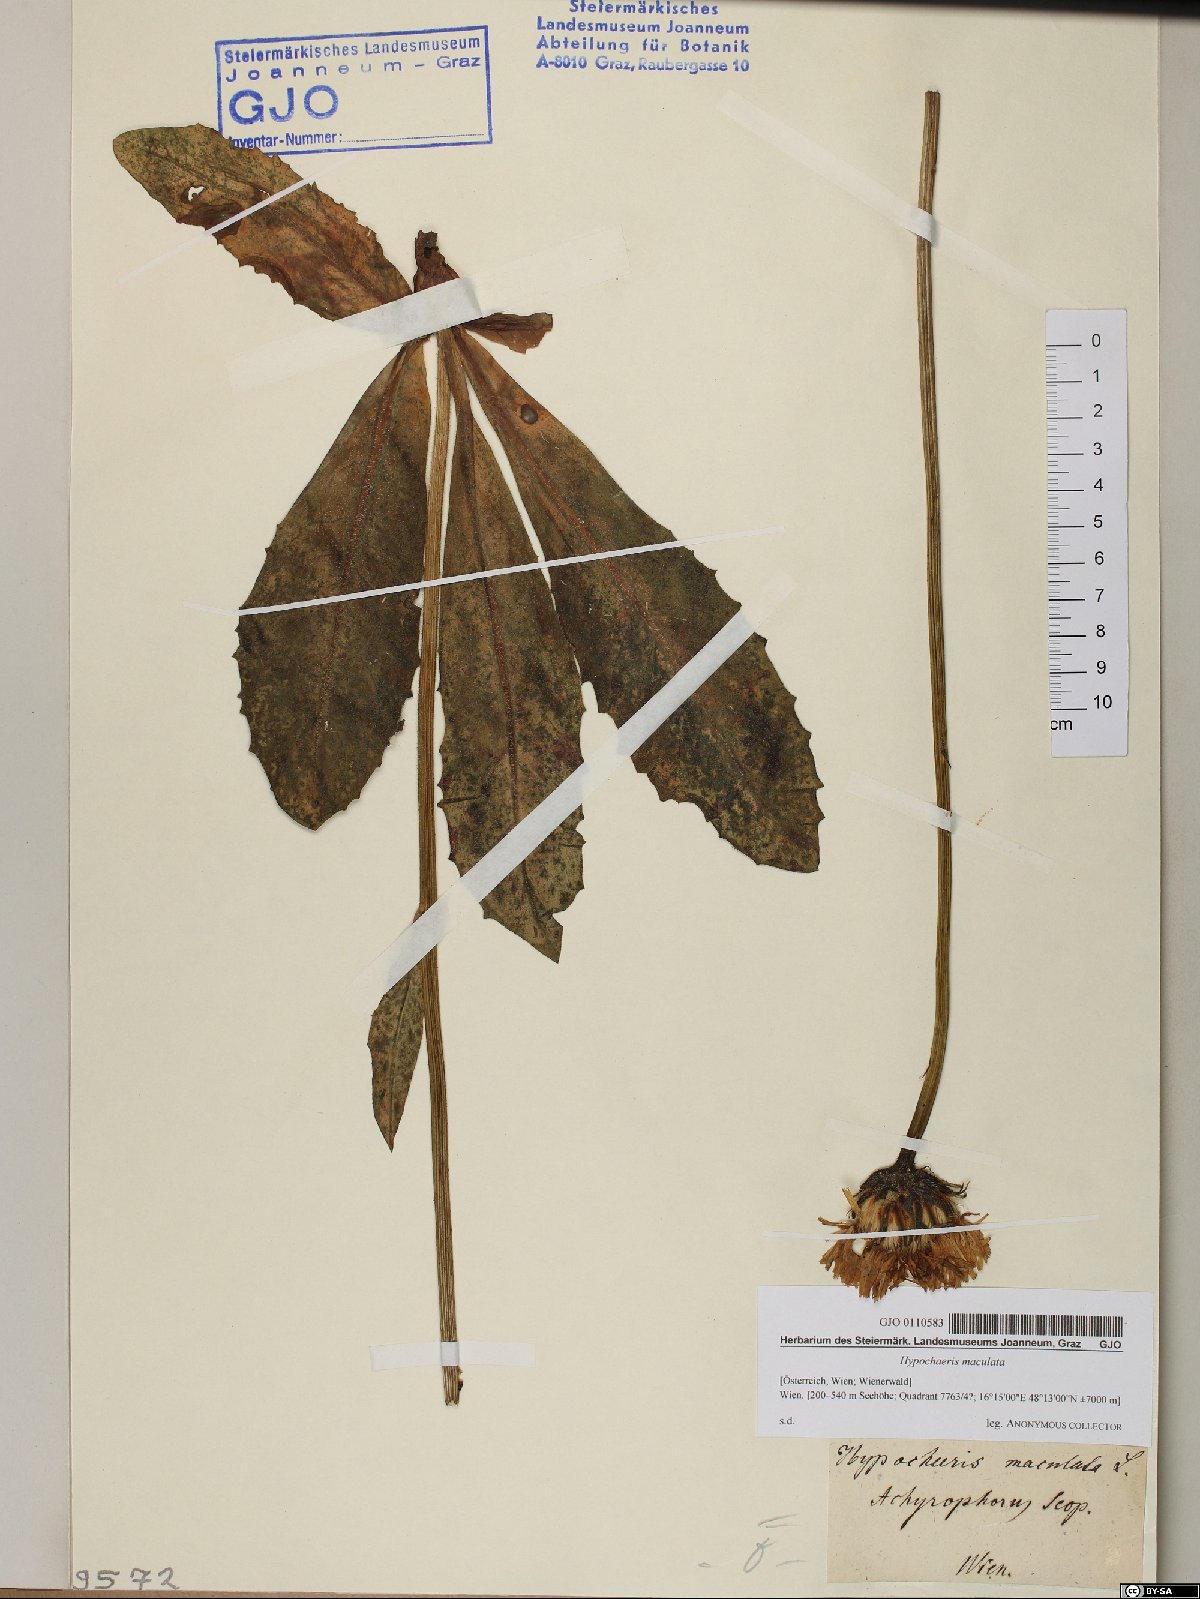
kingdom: Plantae
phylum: Tracheophyta
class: Magnoliopsida
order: Asterales
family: Asteraceae
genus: Trommsdorffia
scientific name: Trommsdorffia maculata
